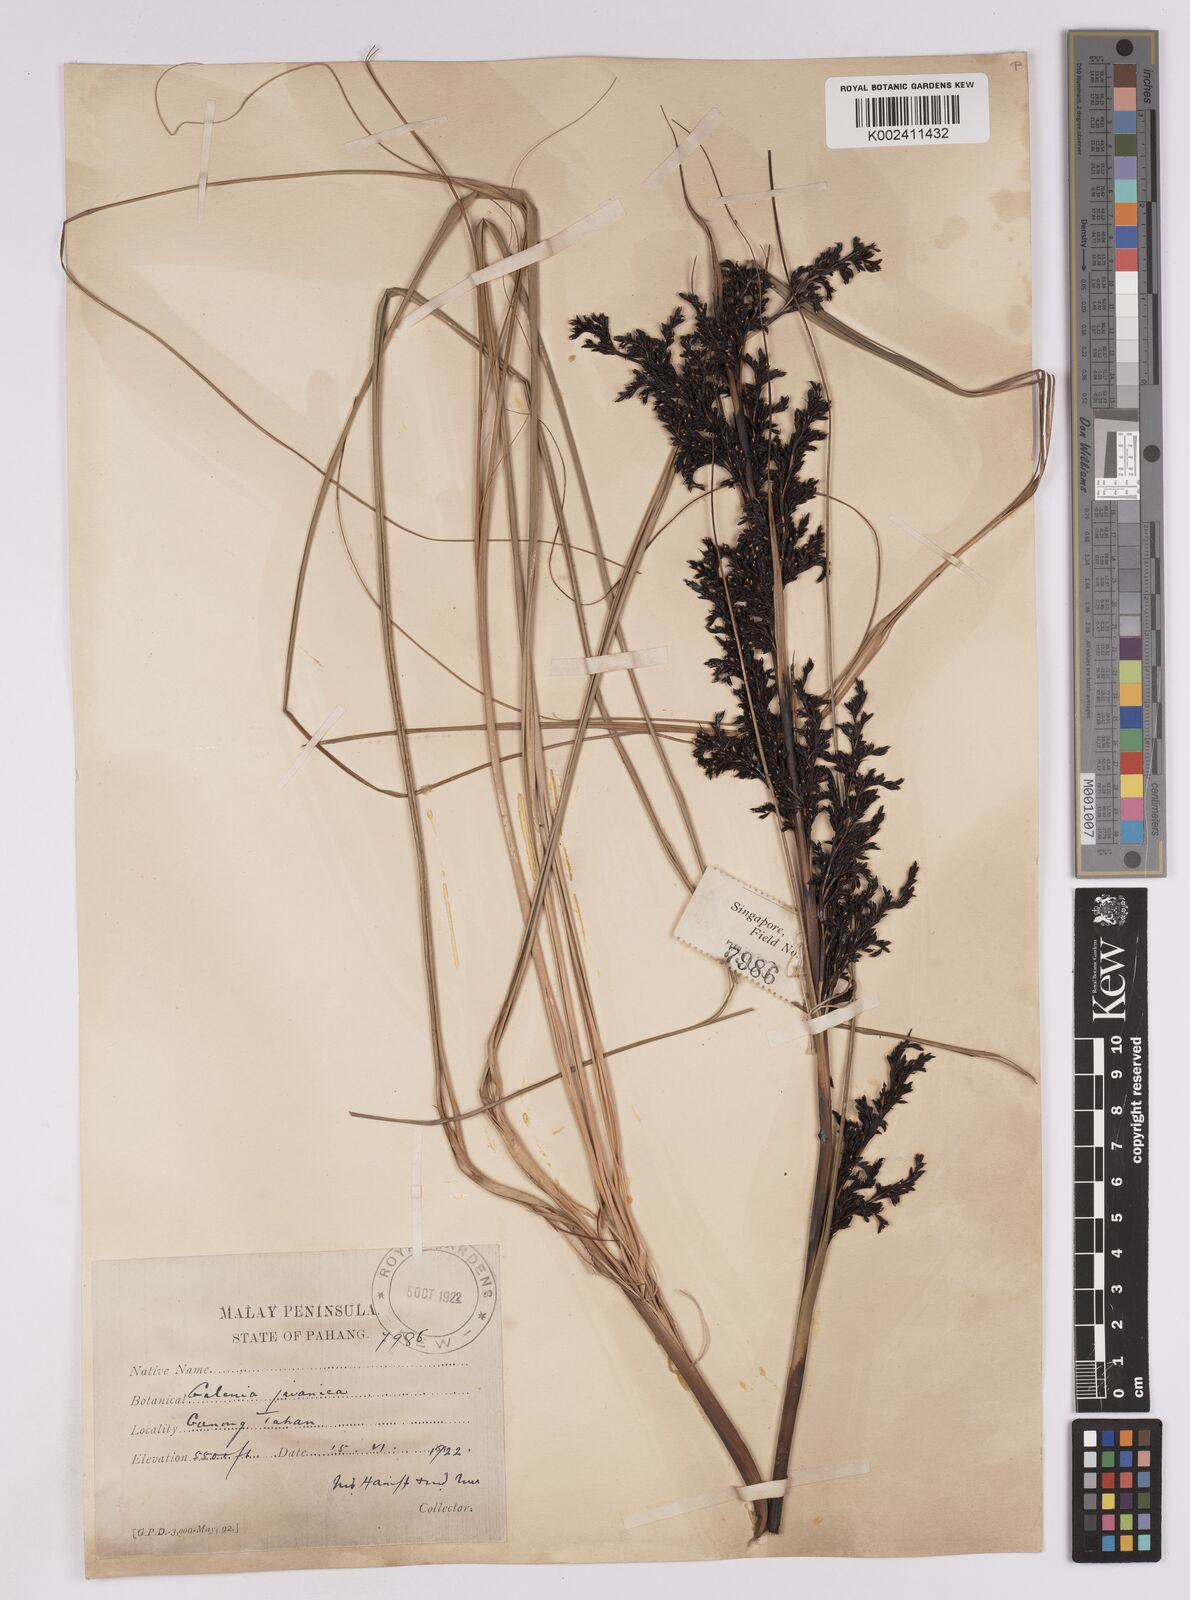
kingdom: Plantae
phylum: Tracheophyta
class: Liliopsida
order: Poales
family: Cyperaceae
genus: Gahnia
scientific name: Gahnia baniensis
